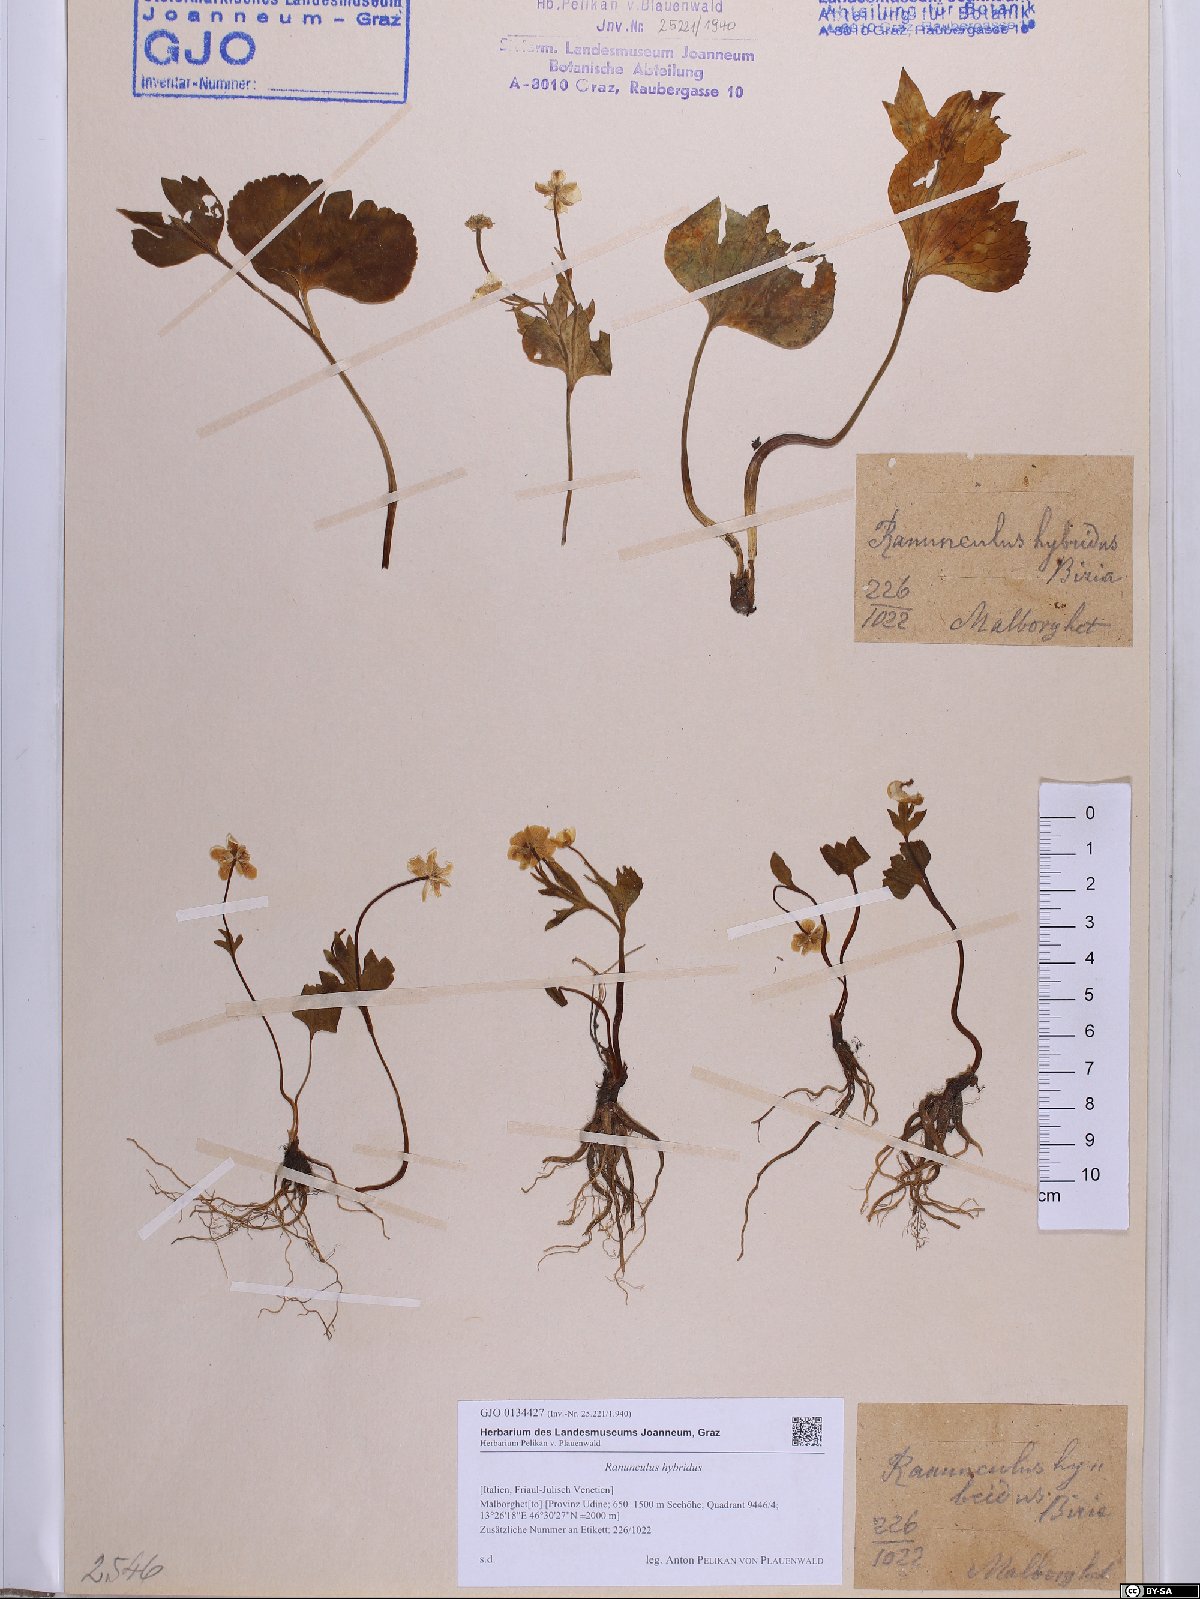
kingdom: Plantae
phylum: Tracheophyta
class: Magnoliopsida
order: Ranunculales
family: Ranunculaceae
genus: Ranunculus
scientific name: Ranunculus hybridus
